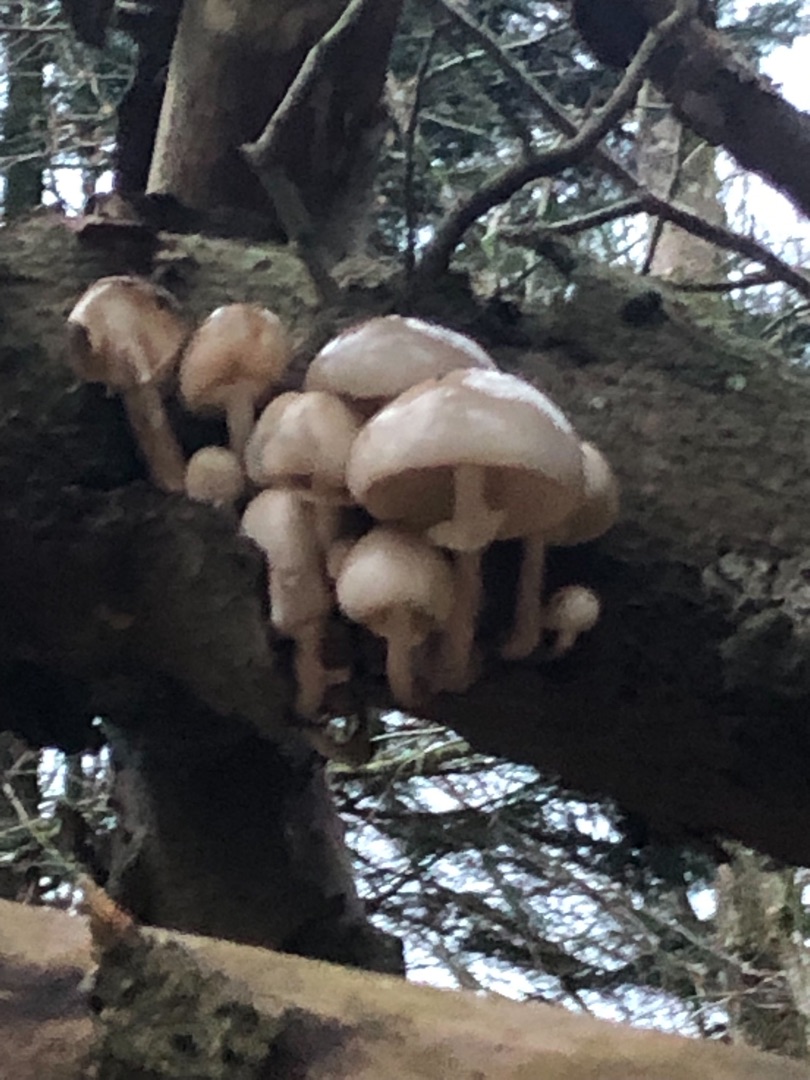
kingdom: Fungi
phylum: Basidiomycota
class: Agaricomycetes
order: Agaricales
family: Physalacriaceae
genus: Mucidula
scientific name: Mucidula mucida
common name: Porcelænshat
